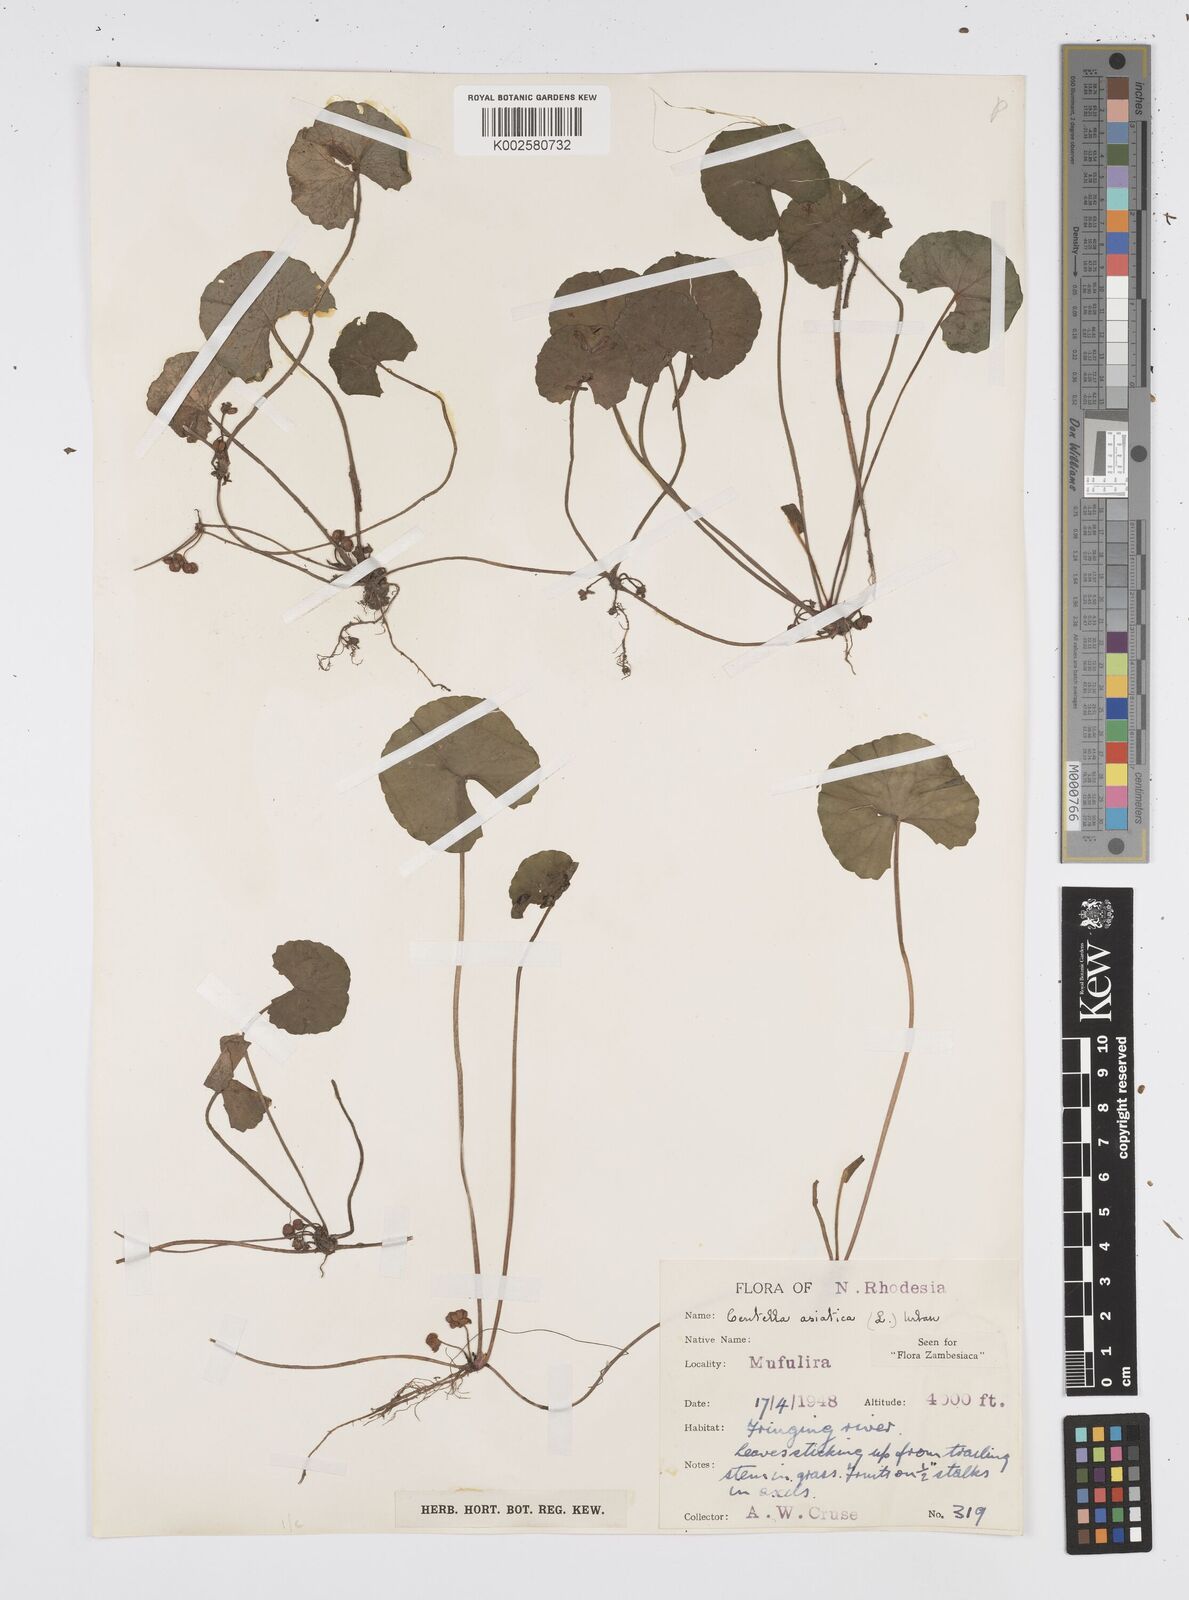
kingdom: Plantae
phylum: Tracheophyta
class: Magnoliopsida
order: Apiales
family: Apiaceae
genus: Centella
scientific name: Centella asiatica
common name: Spadeleaf
